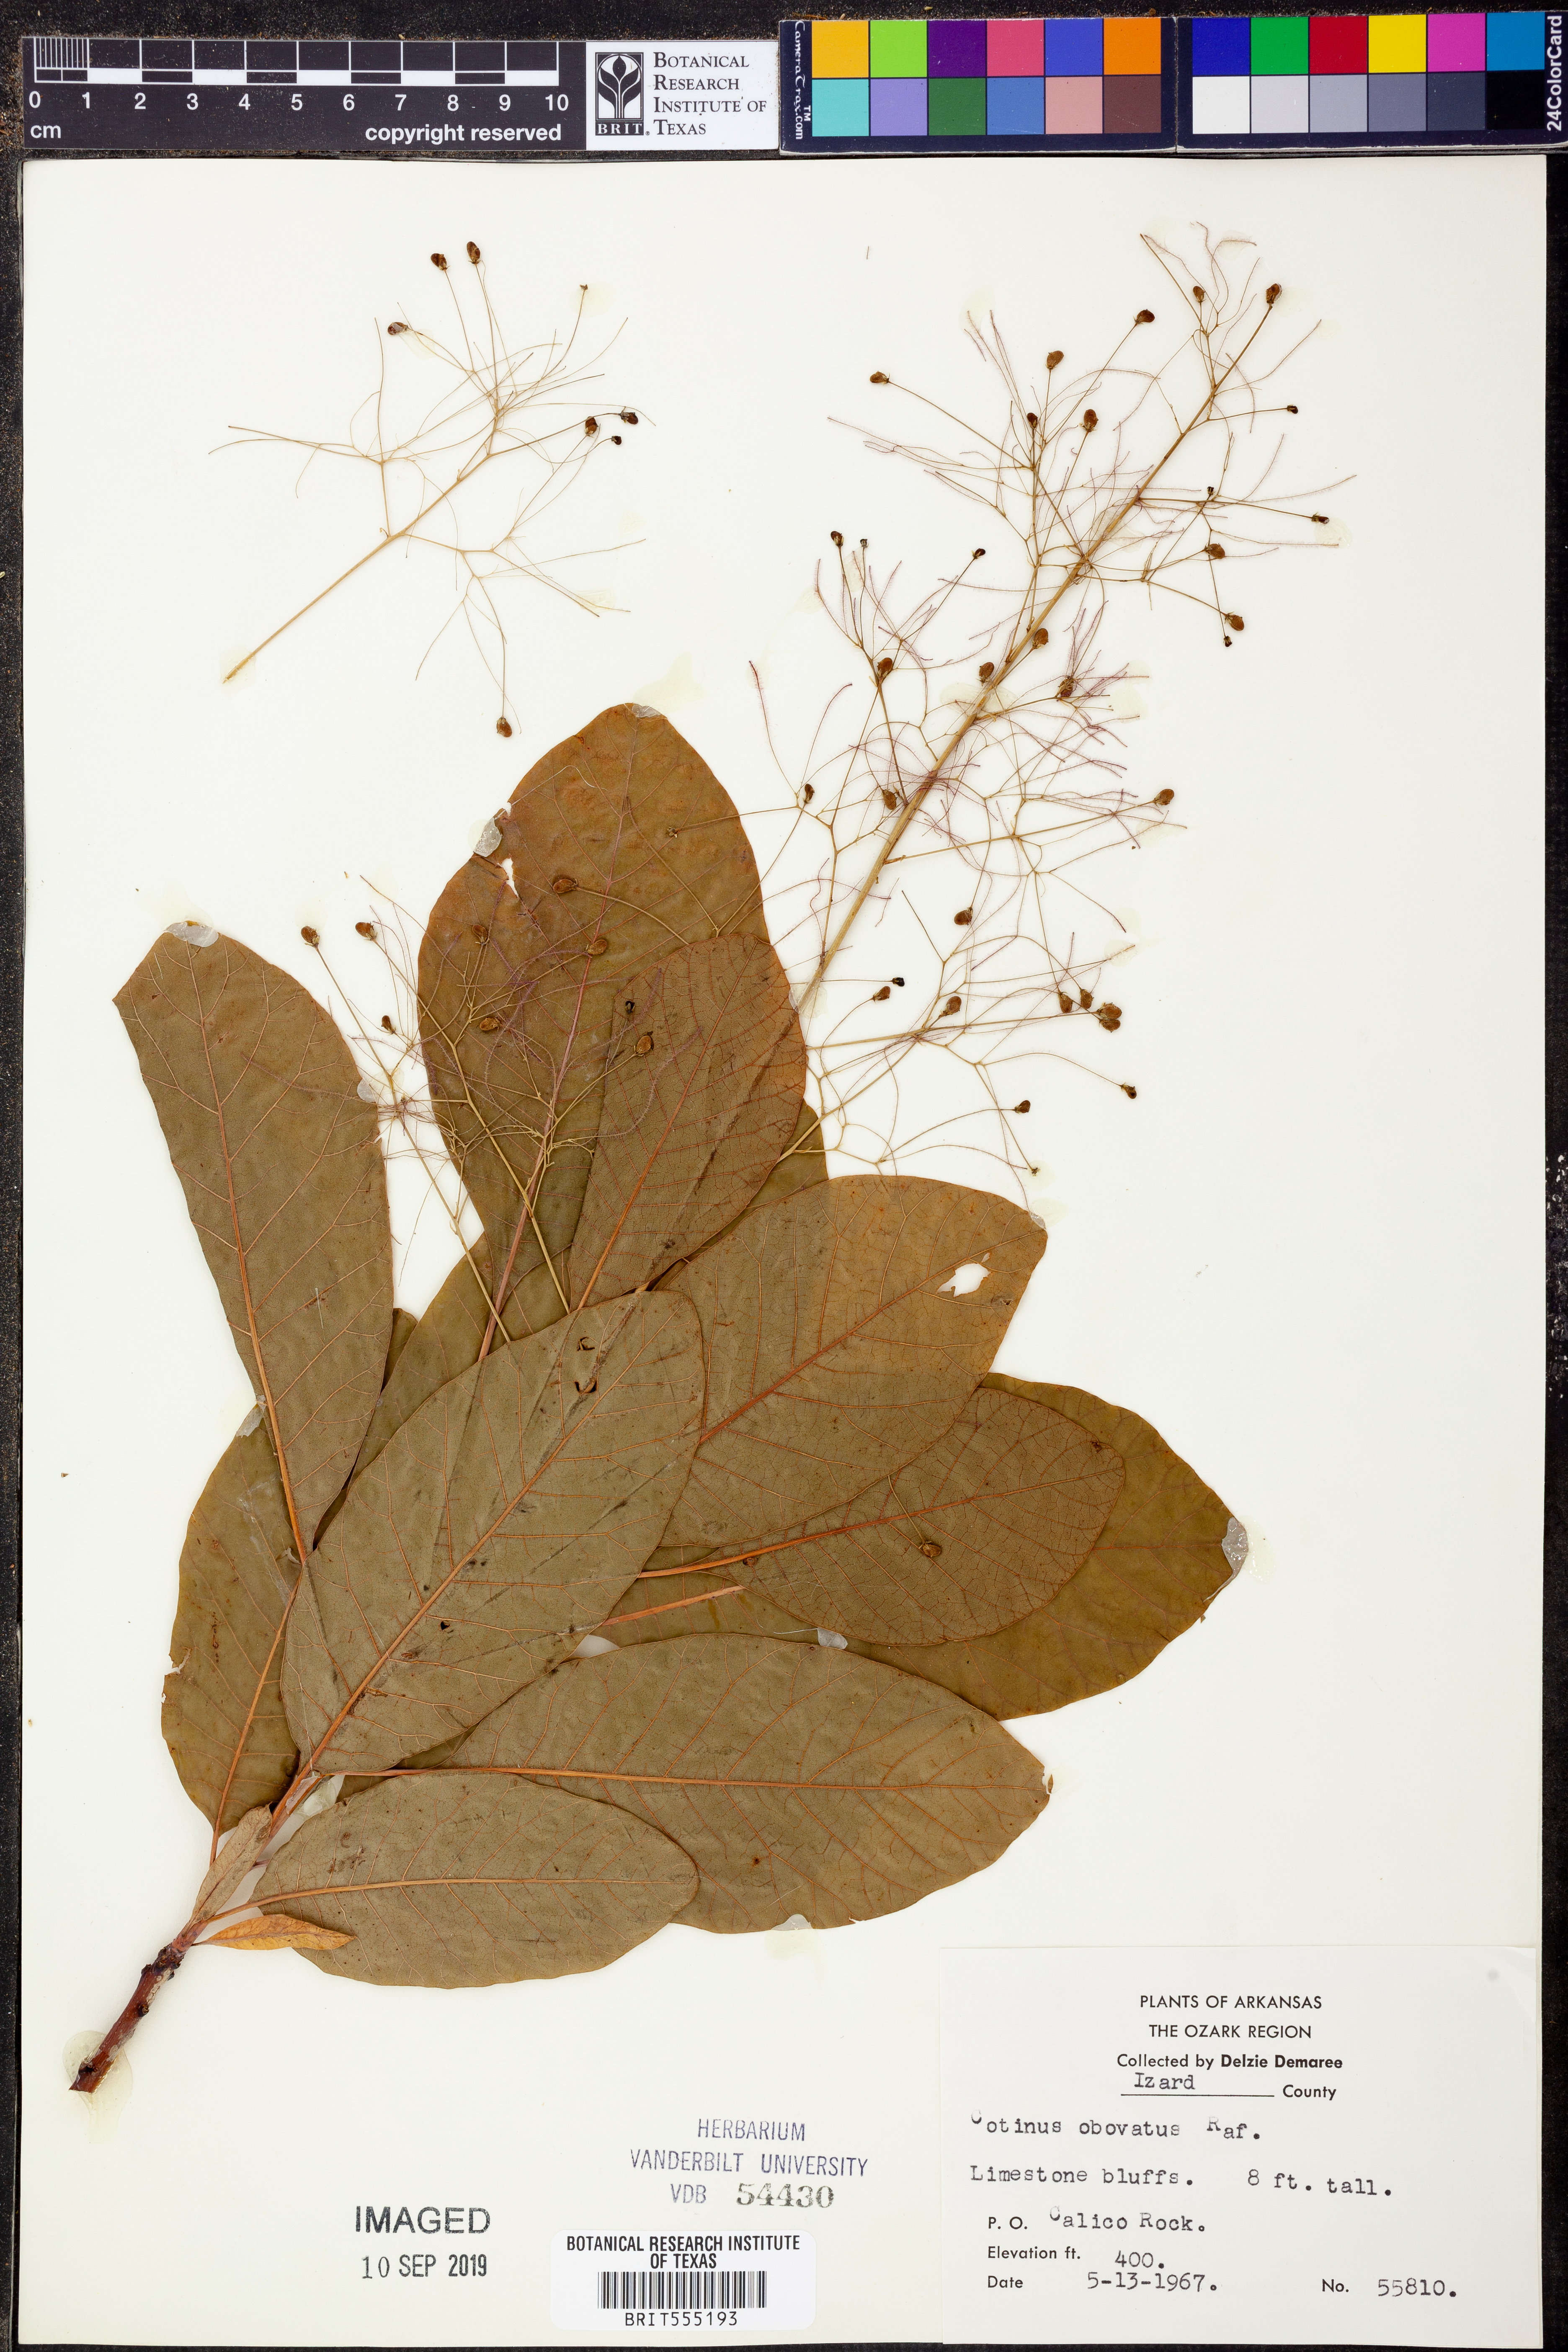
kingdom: Plantae
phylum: Tracheophyta
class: Magnoliopsida
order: Sapindales
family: Anacardiaceae
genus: Cotinus
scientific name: Cotinus obovatus
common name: Chittamwood
